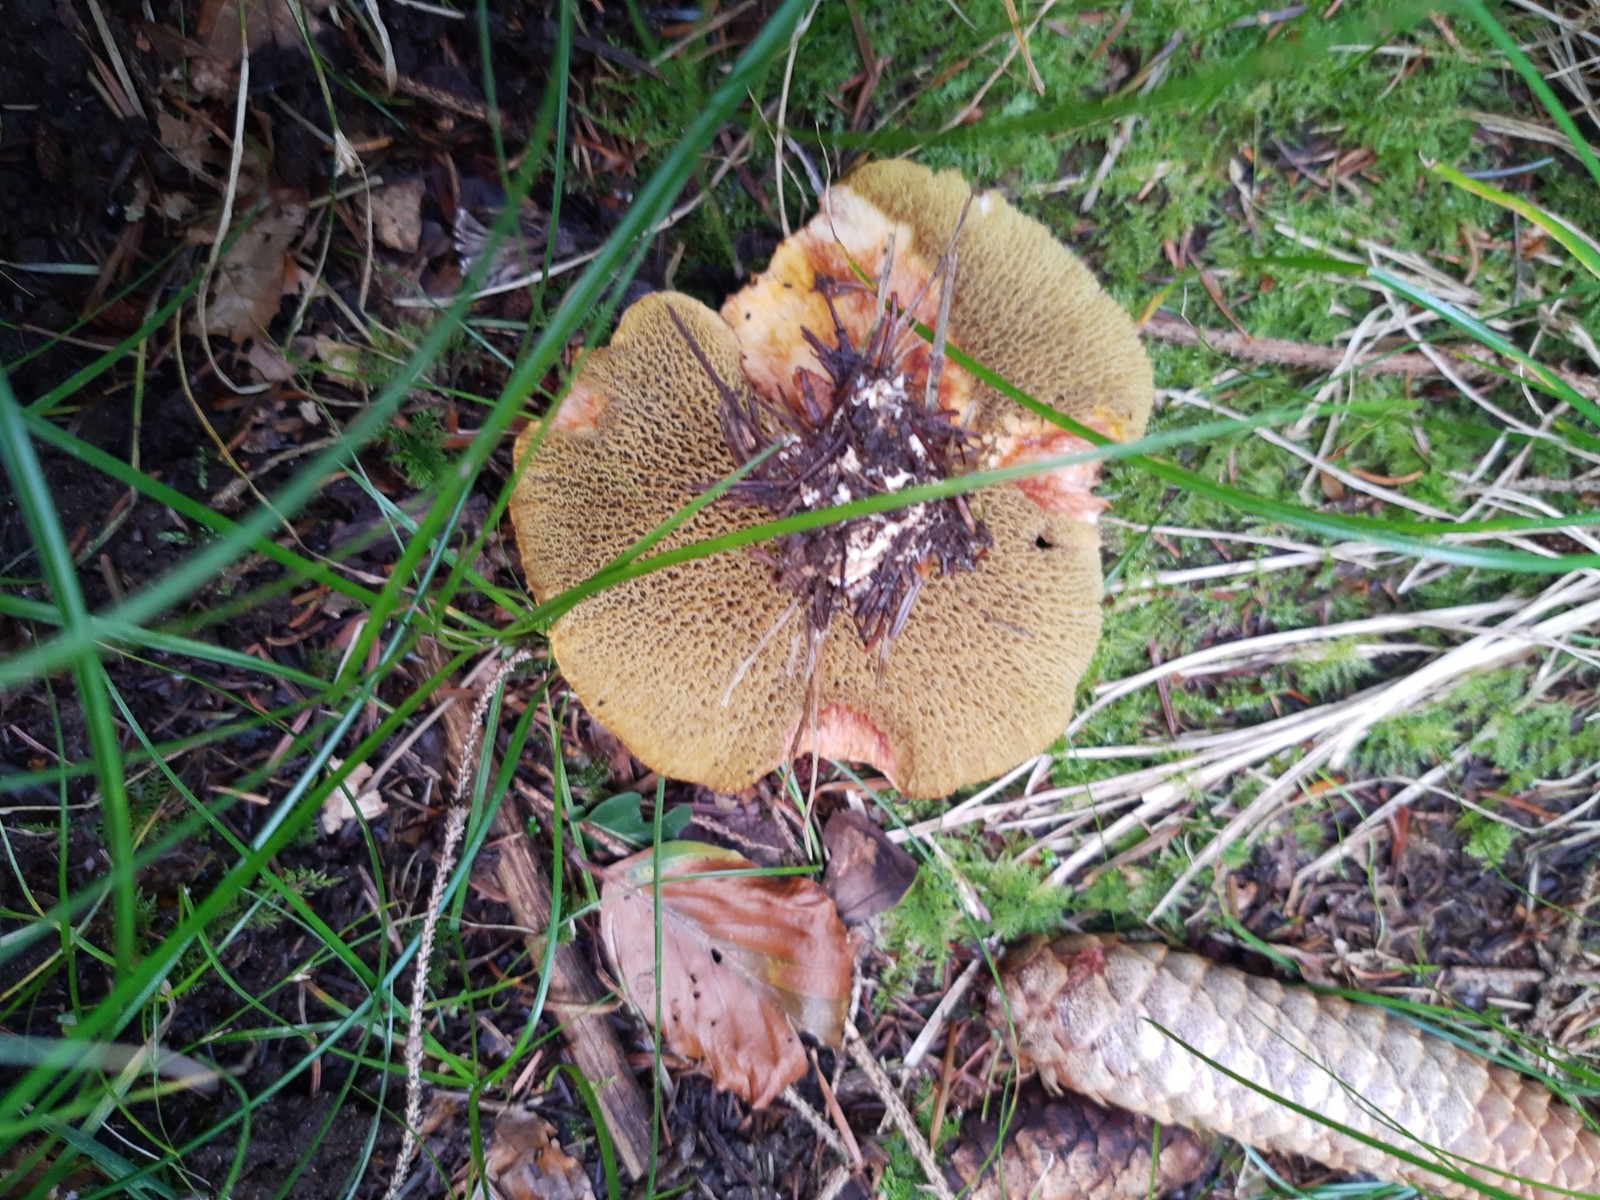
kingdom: Fungi
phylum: Basidiomycota
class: Agaricomycetes
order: Boletales
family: Suillaceae
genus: Suillus
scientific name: Suillus cavipes
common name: hulstokket slimrørhat
